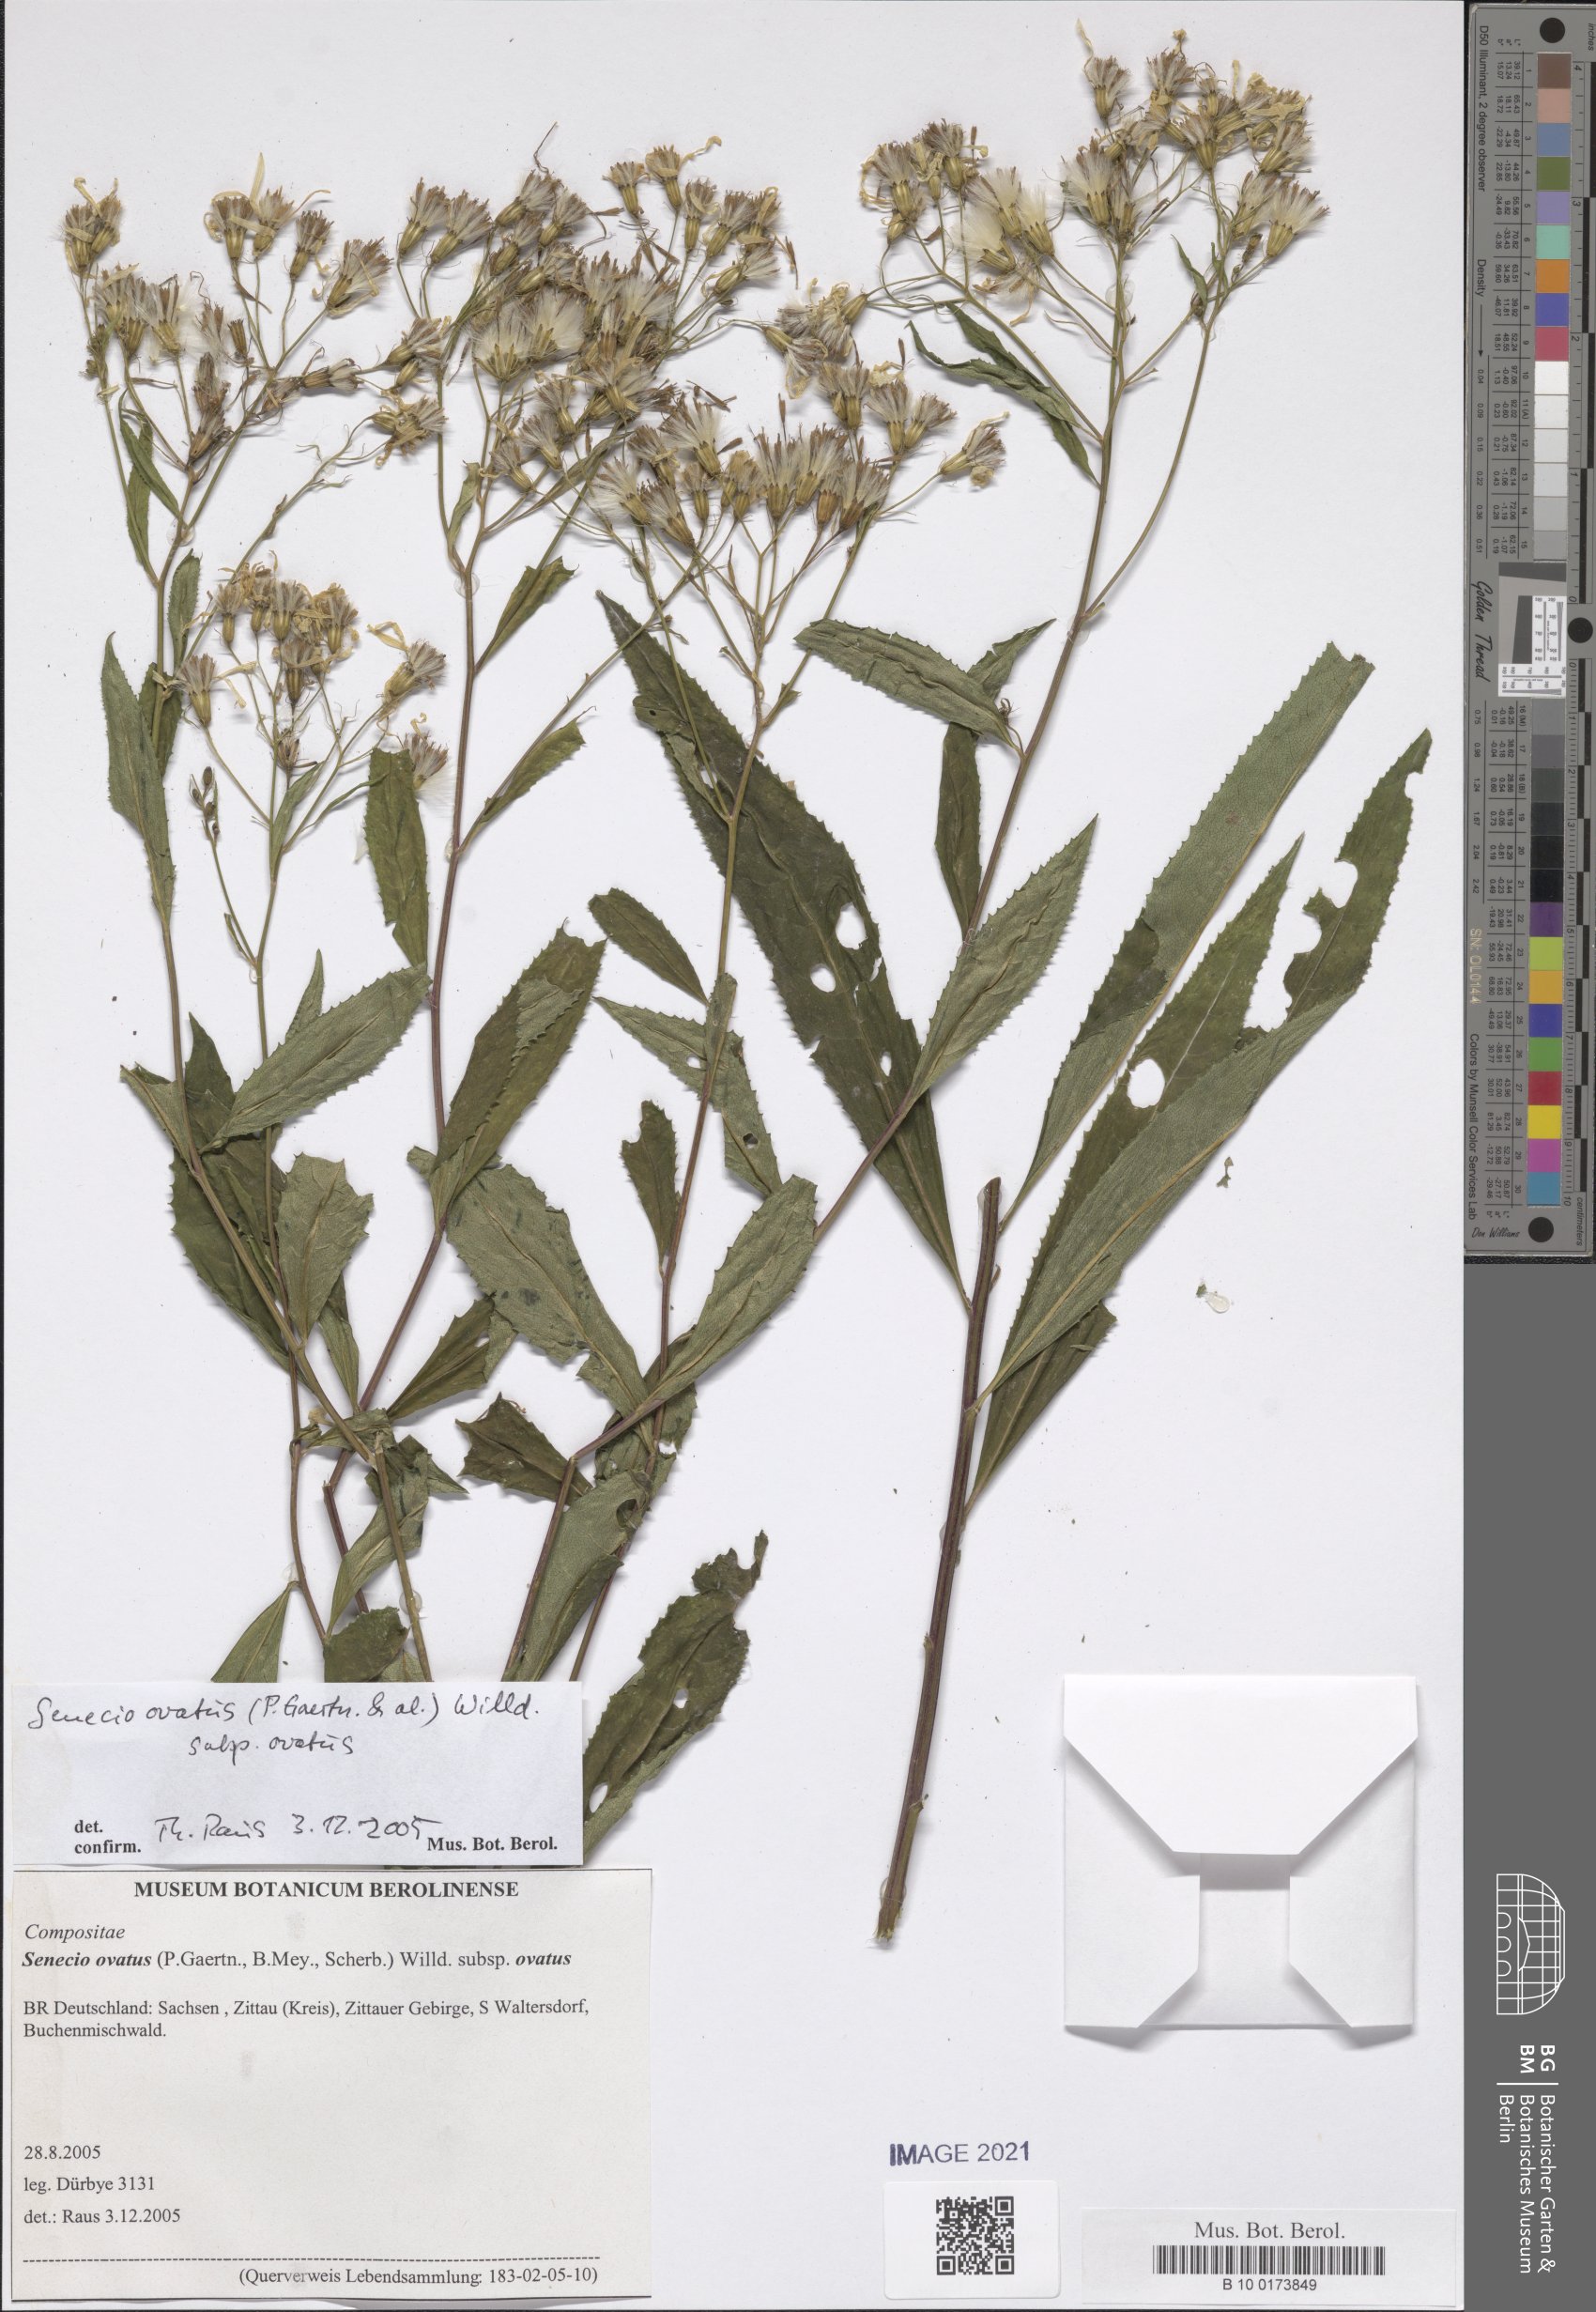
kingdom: Plantae
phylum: Tracheophyta
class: Magnoliopsida
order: Asterales
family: Asteraceae
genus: Senecio
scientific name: Senecio ovatus
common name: Wood ragwort
